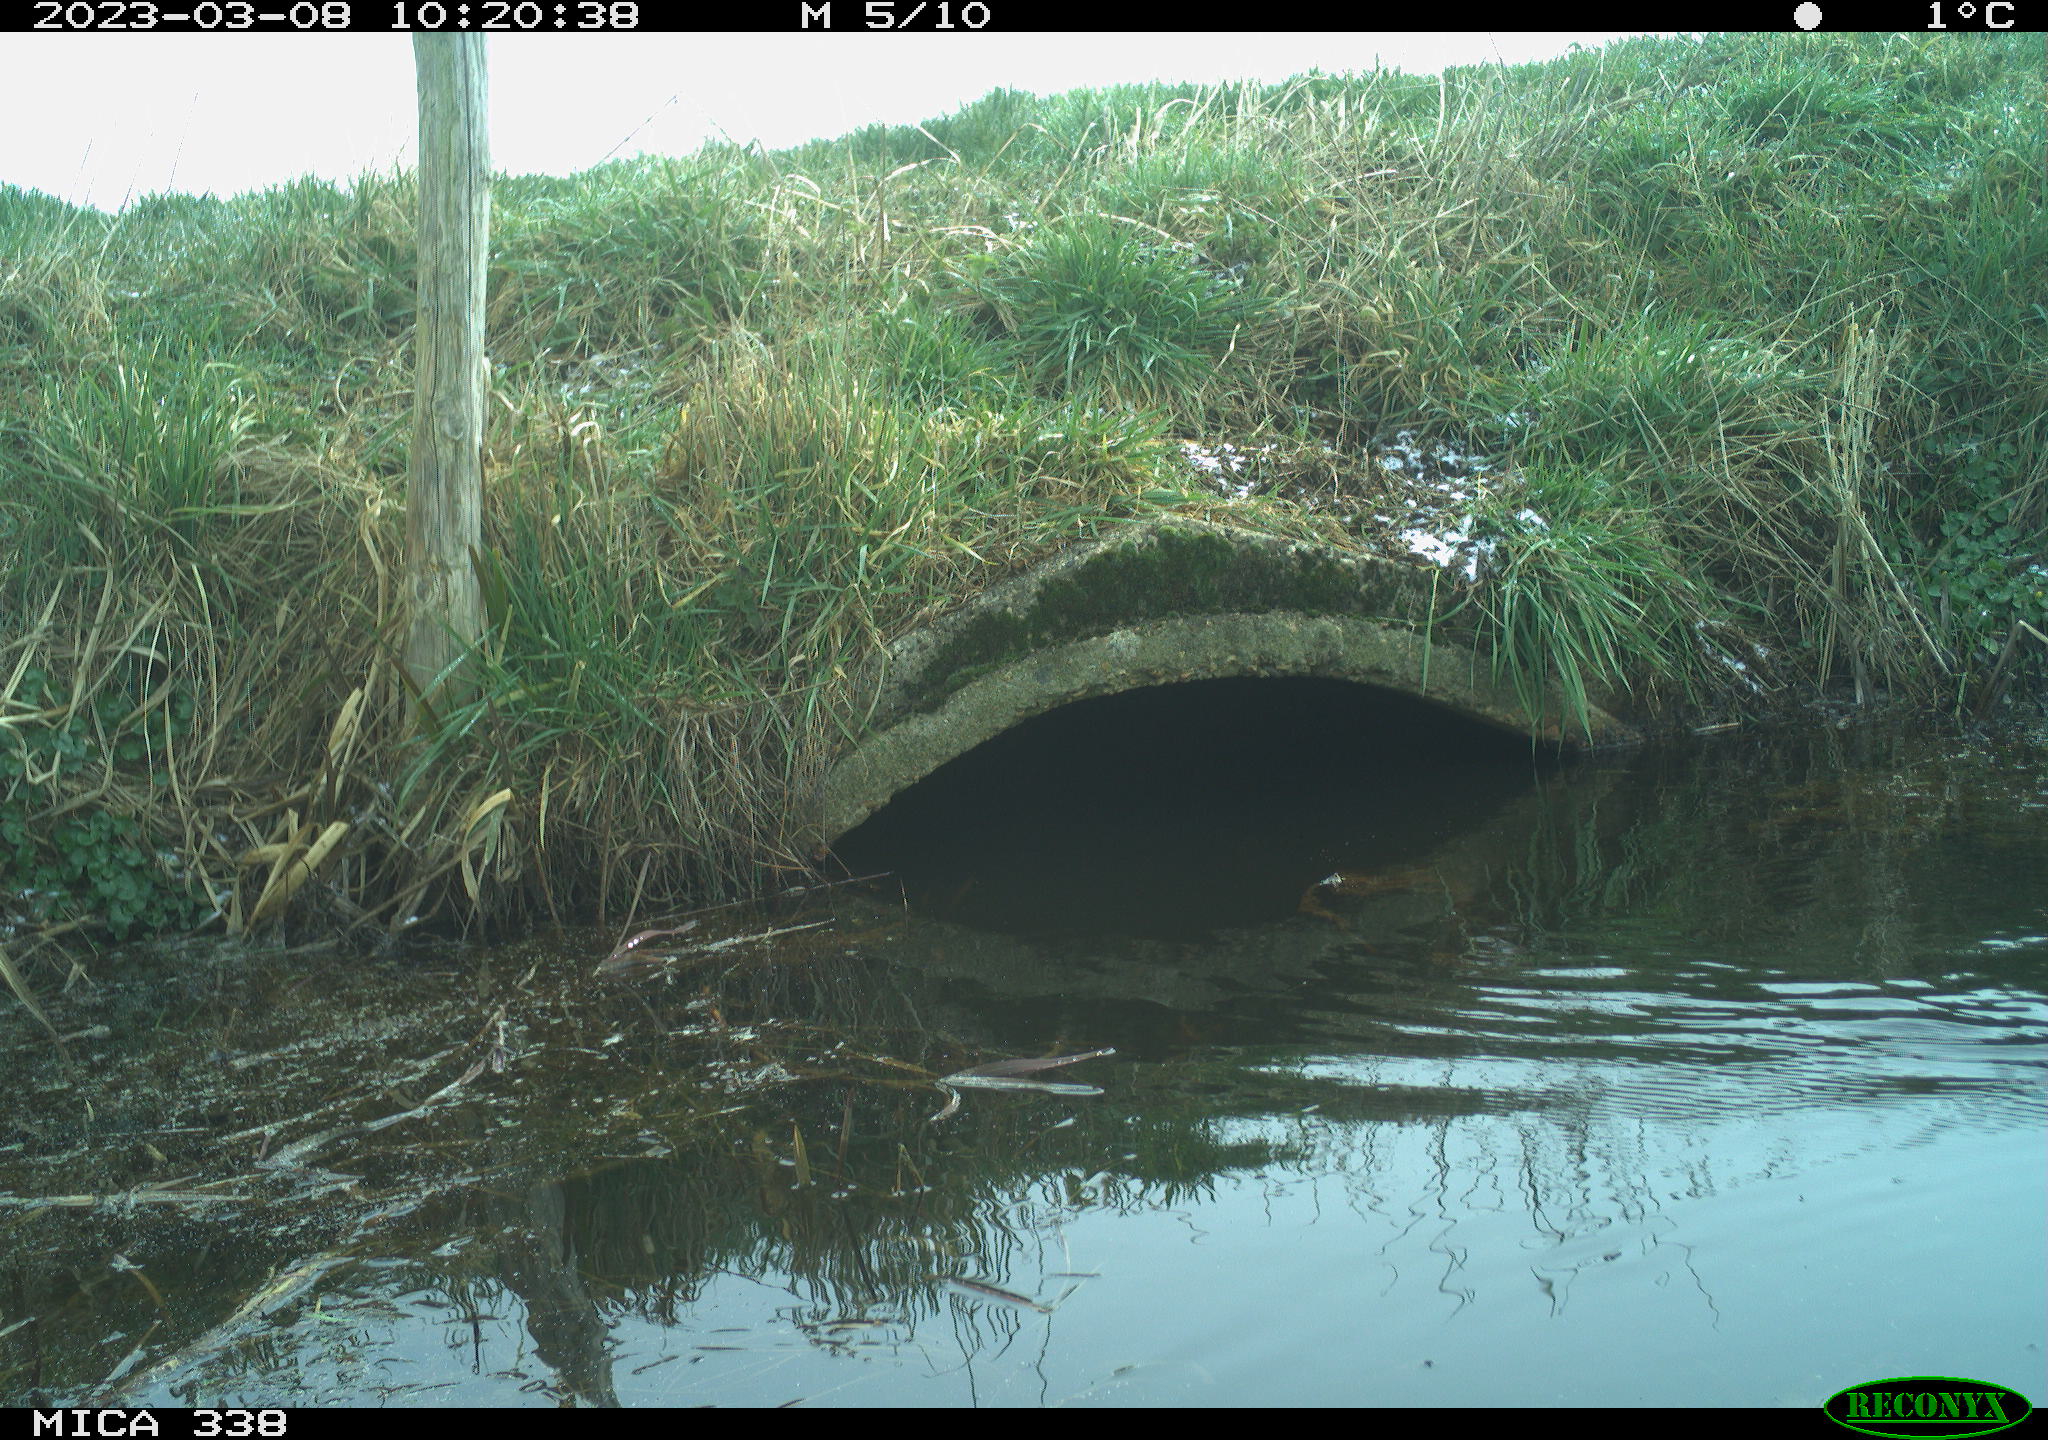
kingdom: Animalia
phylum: Chordata
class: Aves
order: Anseriformes
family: Anatidae
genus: Anas
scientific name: Anas
